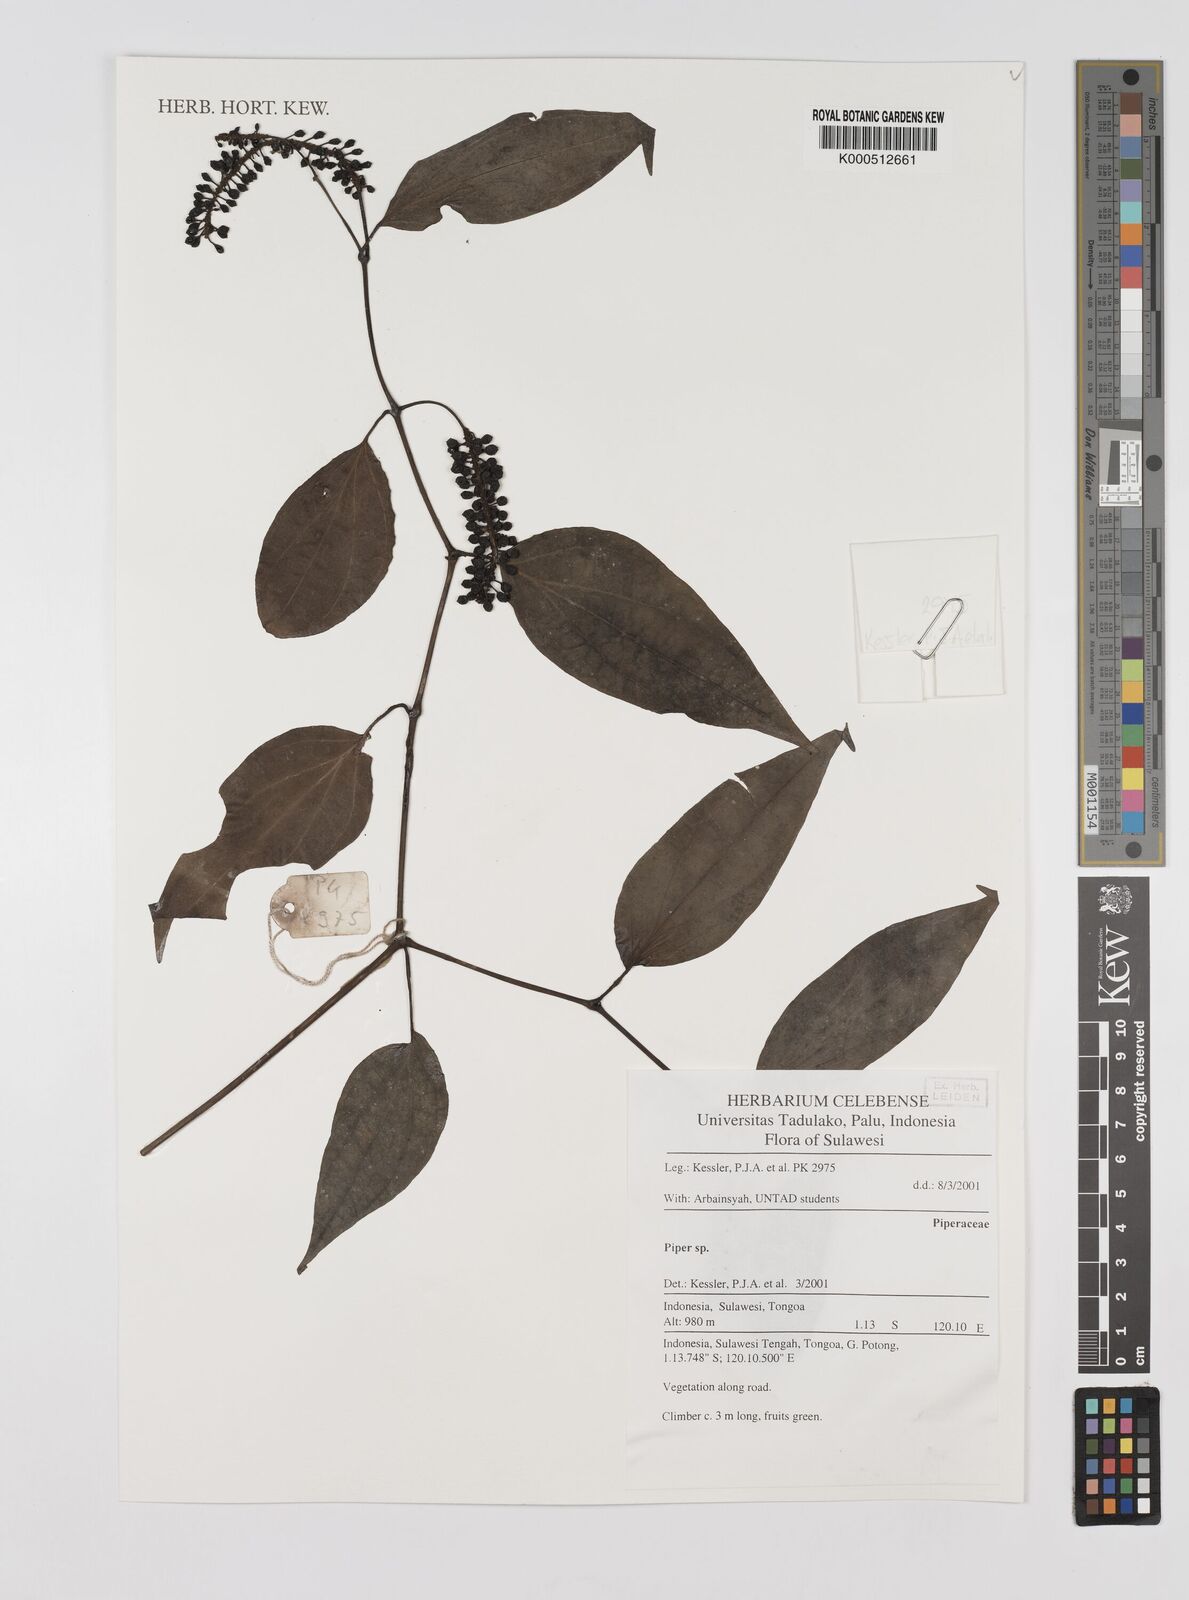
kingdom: Plantae
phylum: Tracheophyta
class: Magnoliopsida
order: Piperales
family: Piperaceae
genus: Piper
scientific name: Piper
